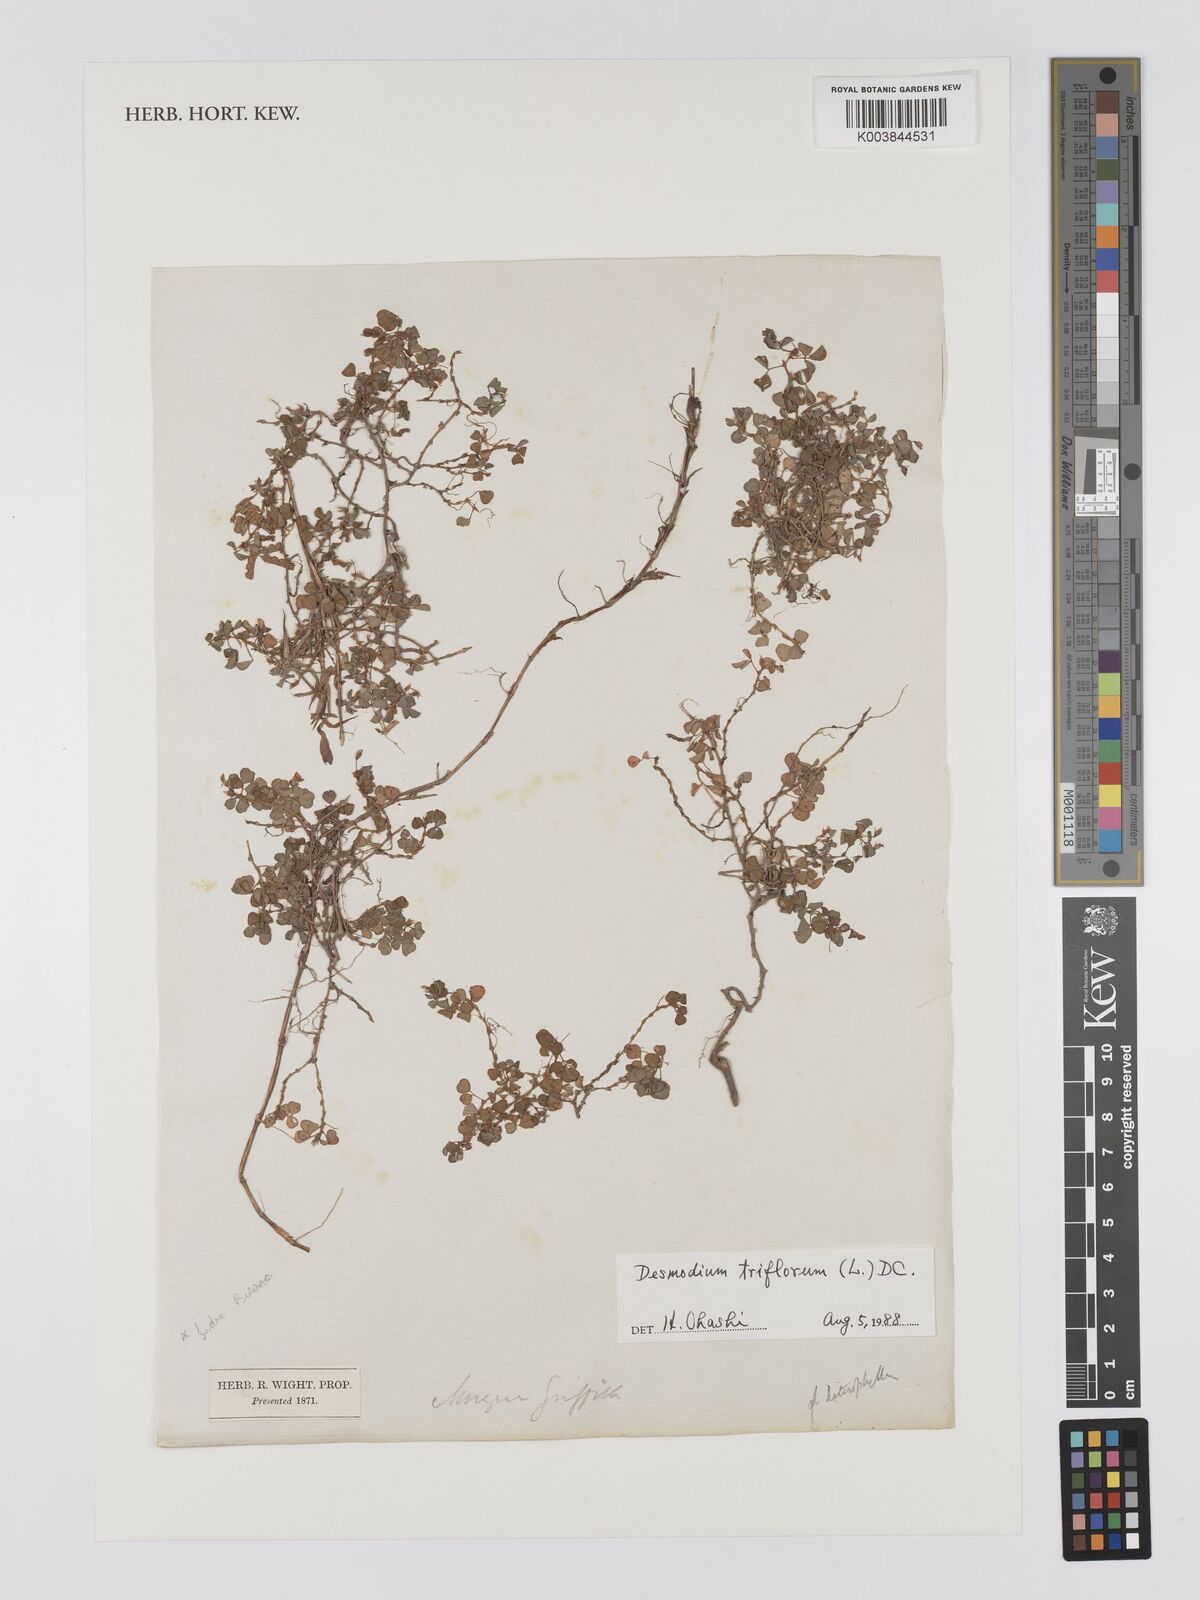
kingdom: Plantae
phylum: Tracheophyta
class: Magnoliopsida
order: Fabales
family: Fabaceae
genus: Grona
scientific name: Grona triflora
